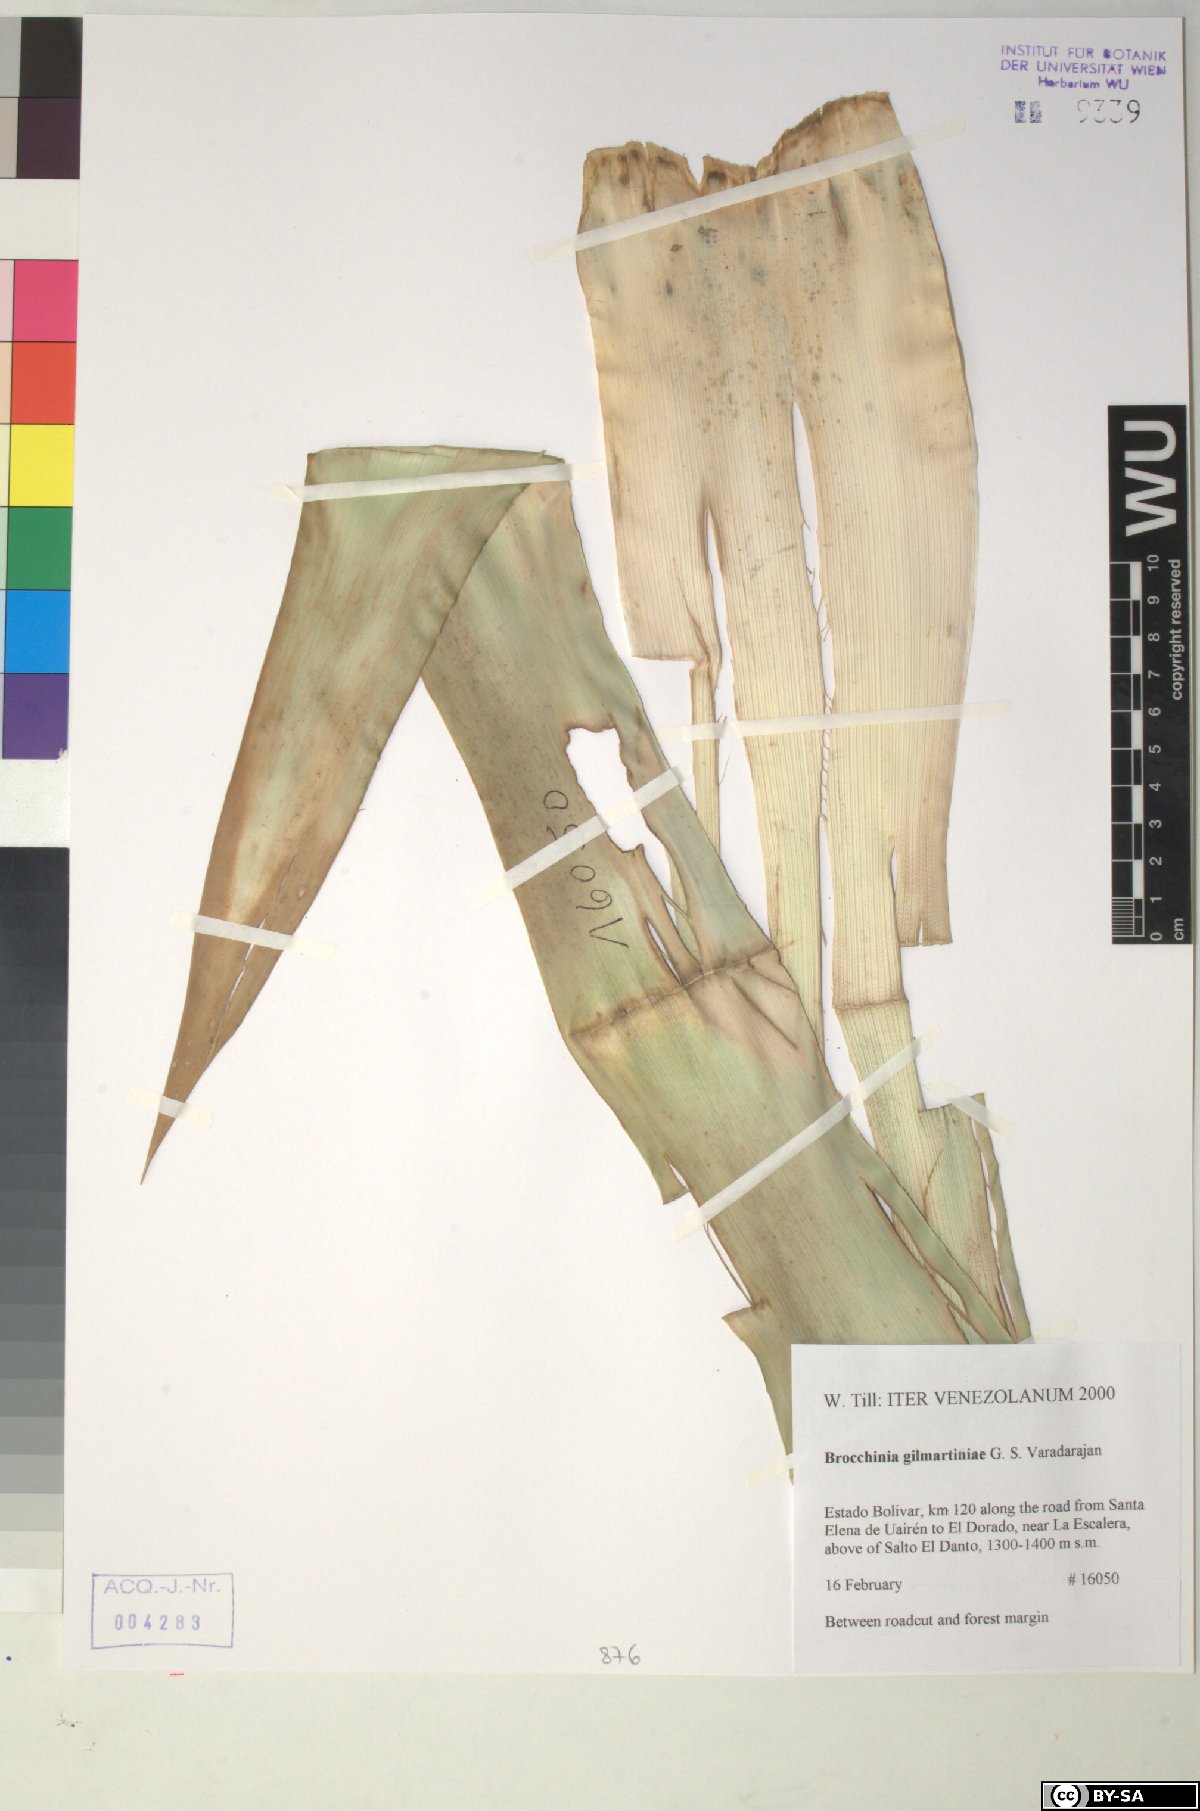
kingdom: Plantae
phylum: Tracheophyta
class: Liliopsida
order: Poales
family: Bromeliaceae
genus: Brocchinia
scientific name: Brocchinia gilmartiniae
